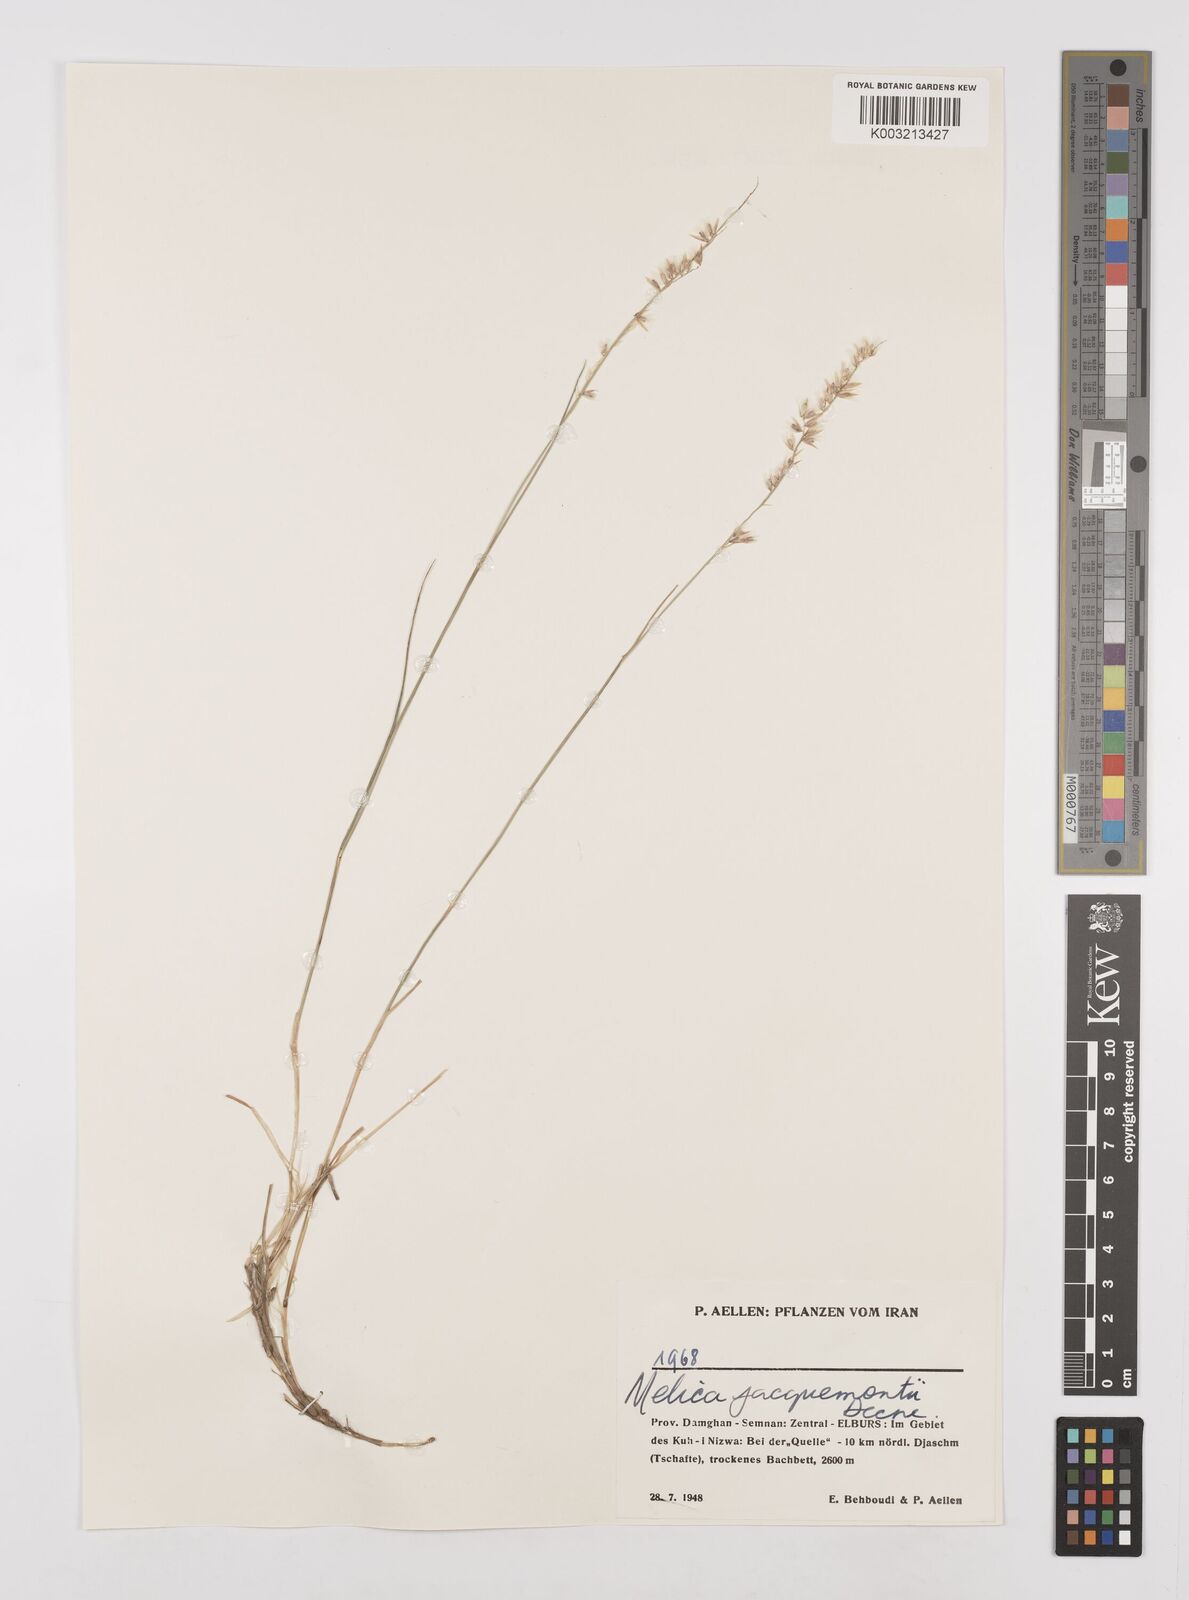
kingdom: Plantae
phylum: Tracheophyta
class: Liliopsida
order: Poales
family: Poaceae
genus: Melica
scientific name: Melica persica
